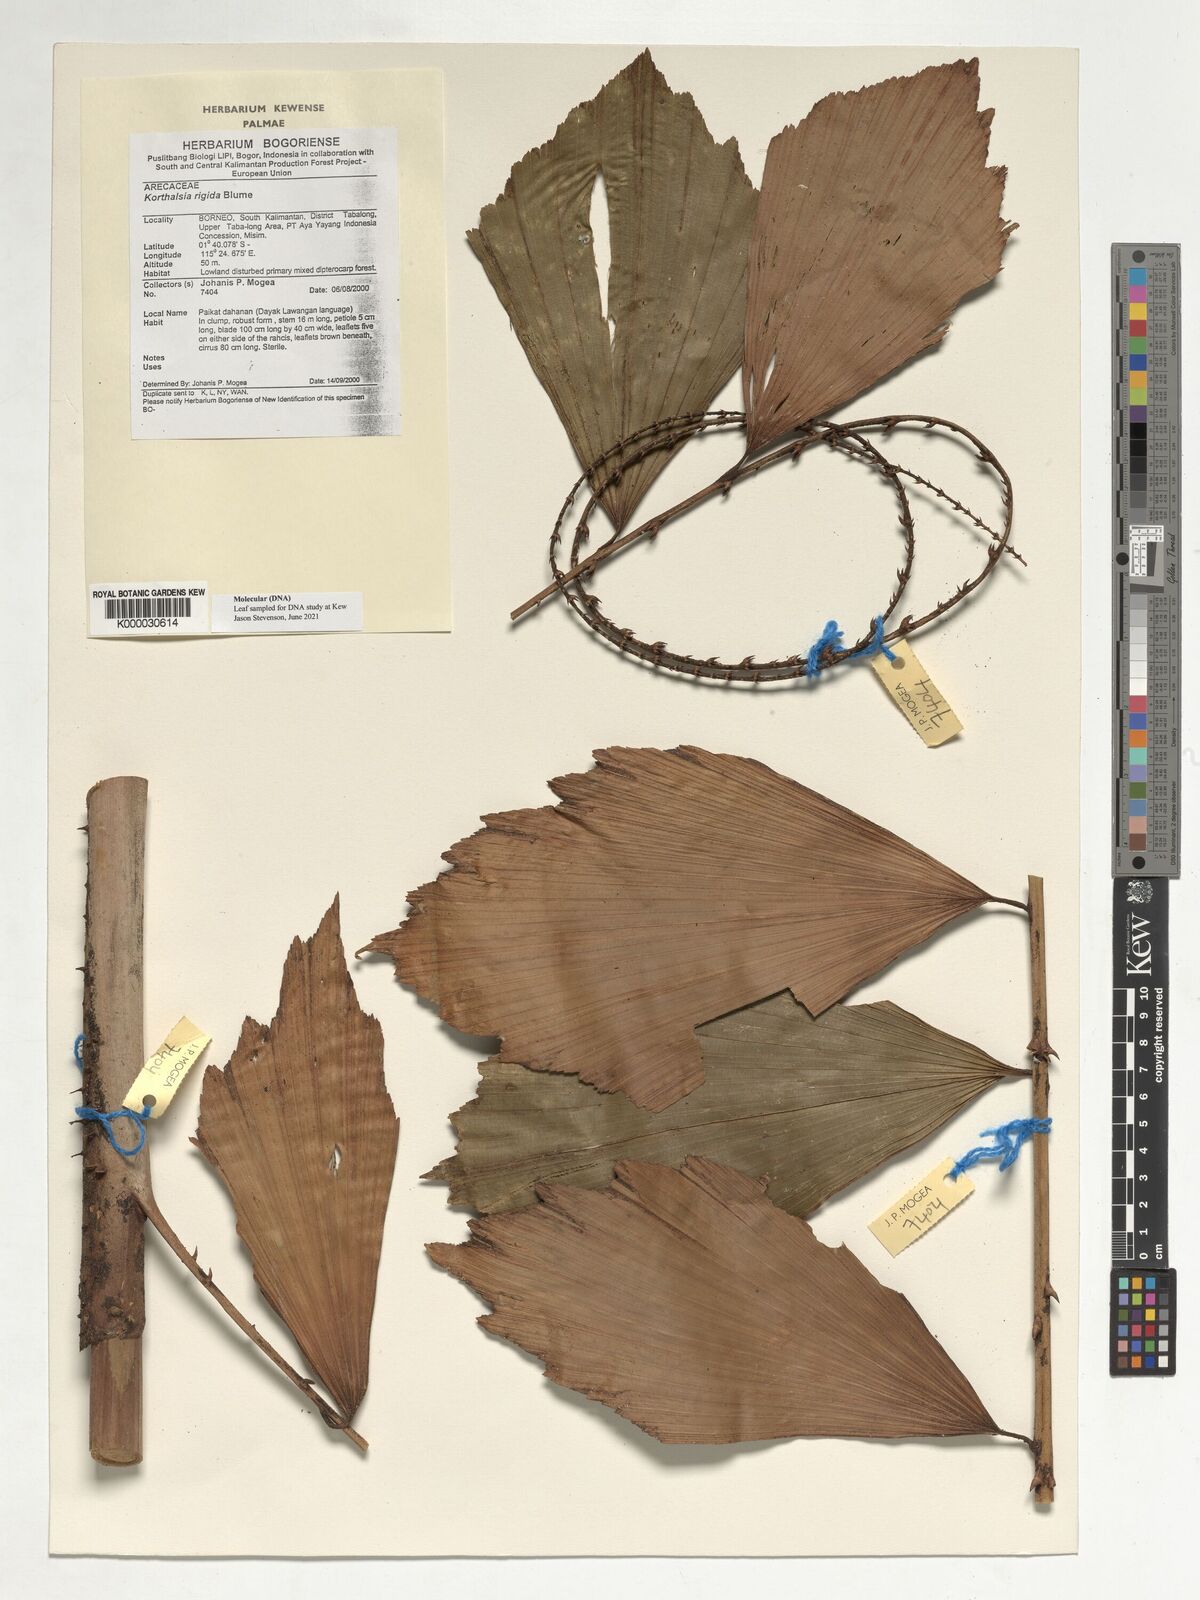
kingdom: Plantae
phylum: Tracheophyta
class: Liliopsida
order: Arecales
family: Arecaceae
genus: Korthalsia
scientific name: Korthalsia rigida
